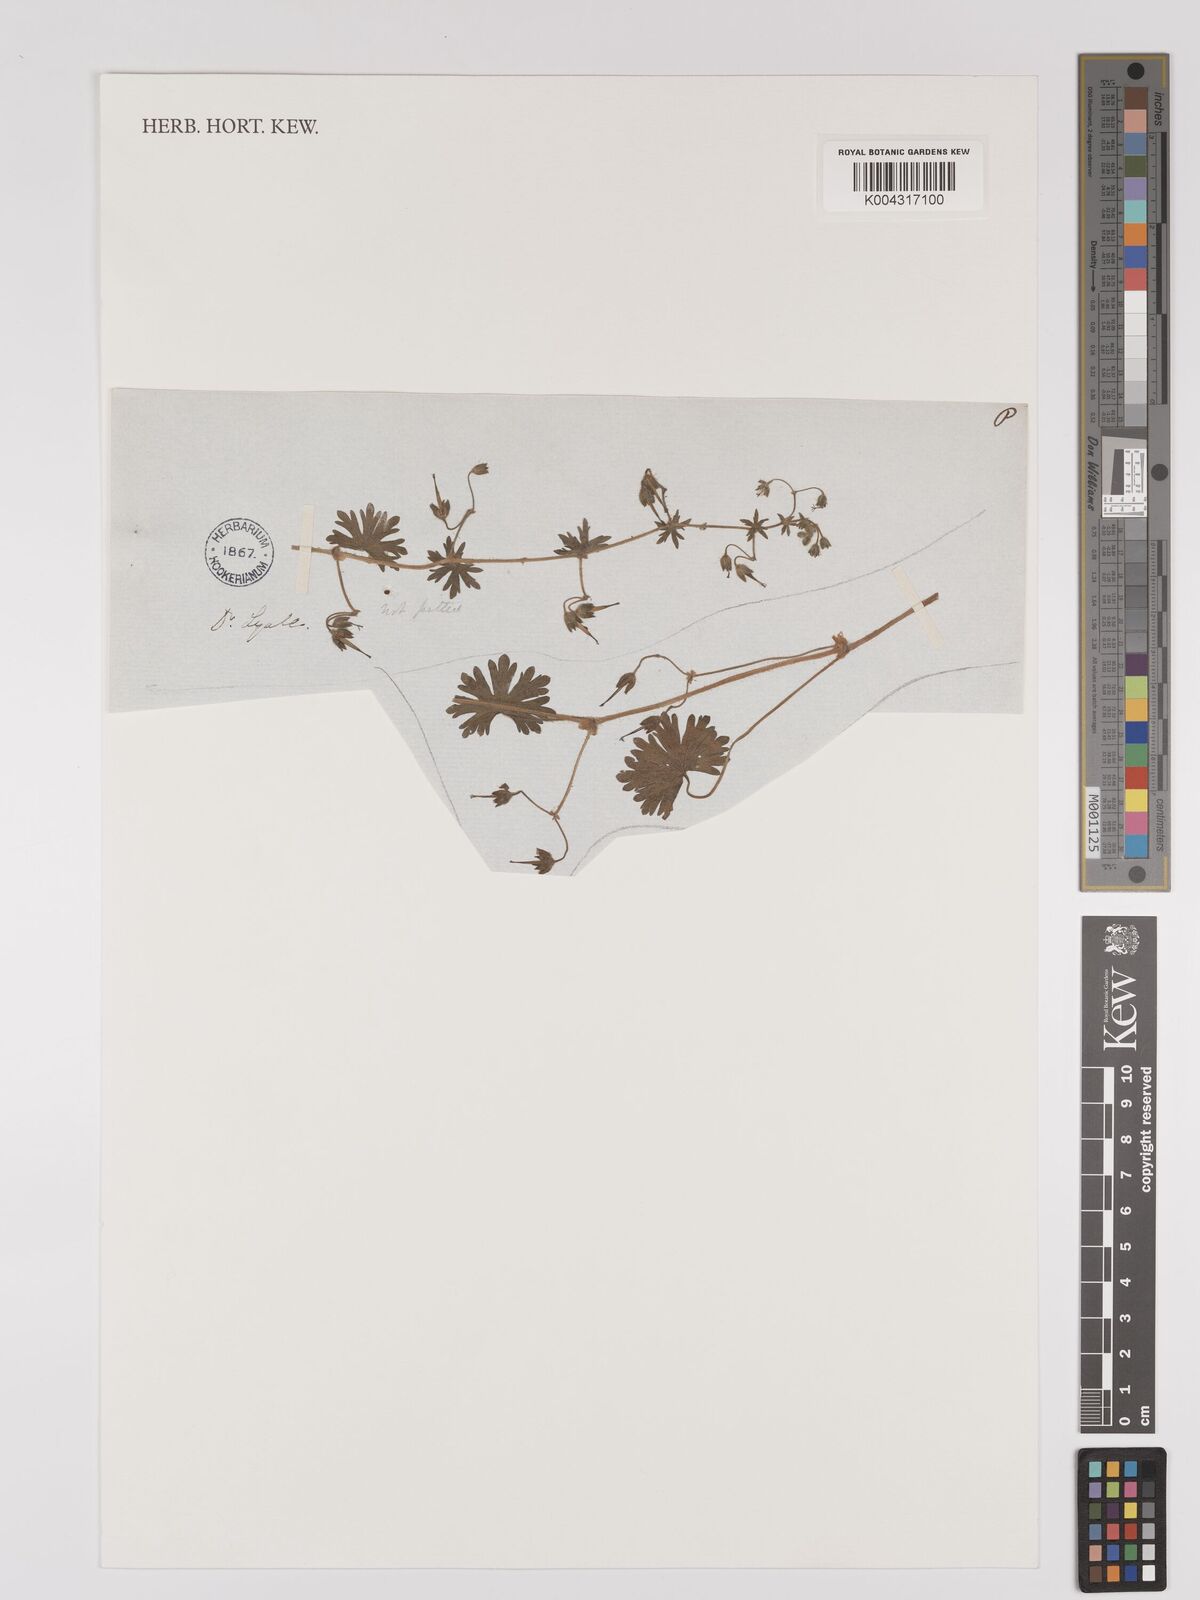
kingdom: Plantae
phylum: Tracheophyta
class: Magnoliopsida
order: Geraniales
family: Geraniaceae
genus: Geranium
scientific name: Geranium
